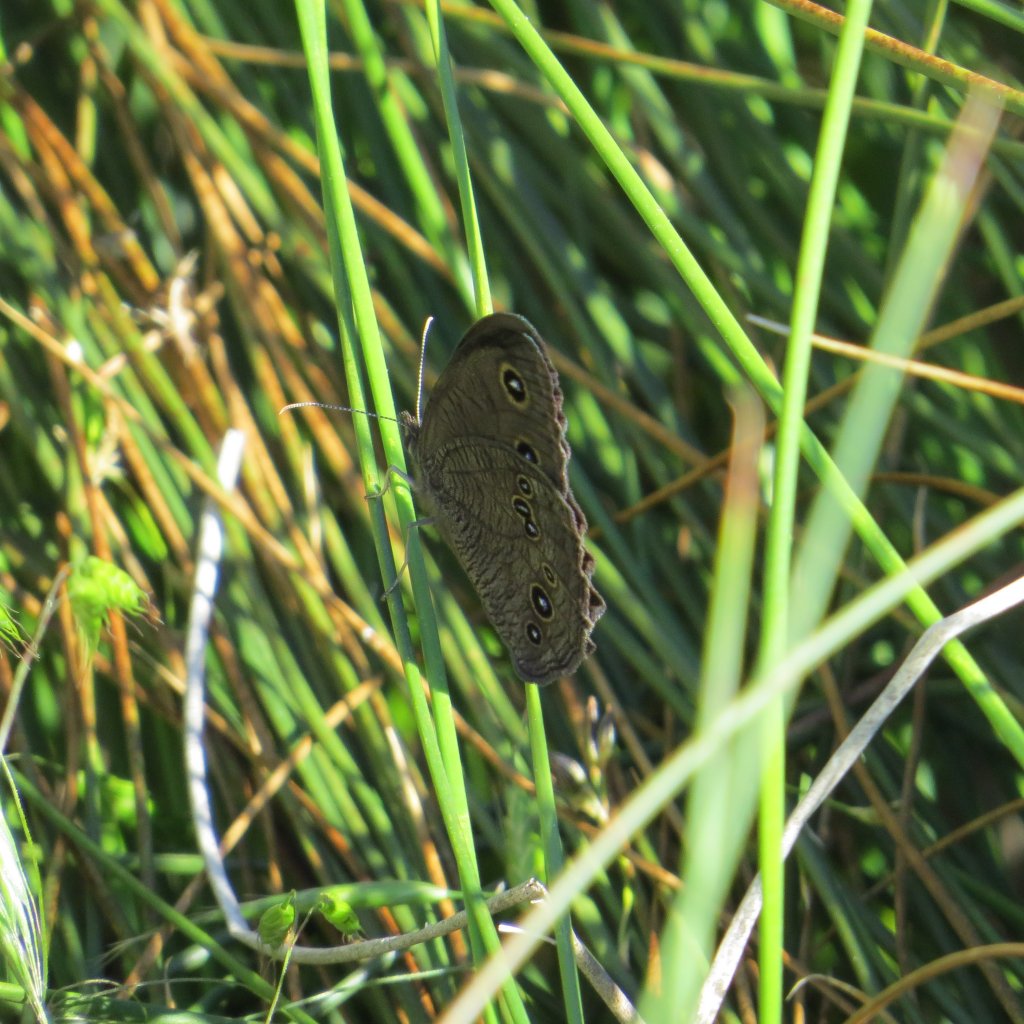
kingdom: Animalia
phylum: Arthropoda
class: Insecta
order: Lepidoptera
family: Nymphalidae
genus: Cercyonis
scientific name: Cercyonis pegala
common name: Common Wood-Nymph
